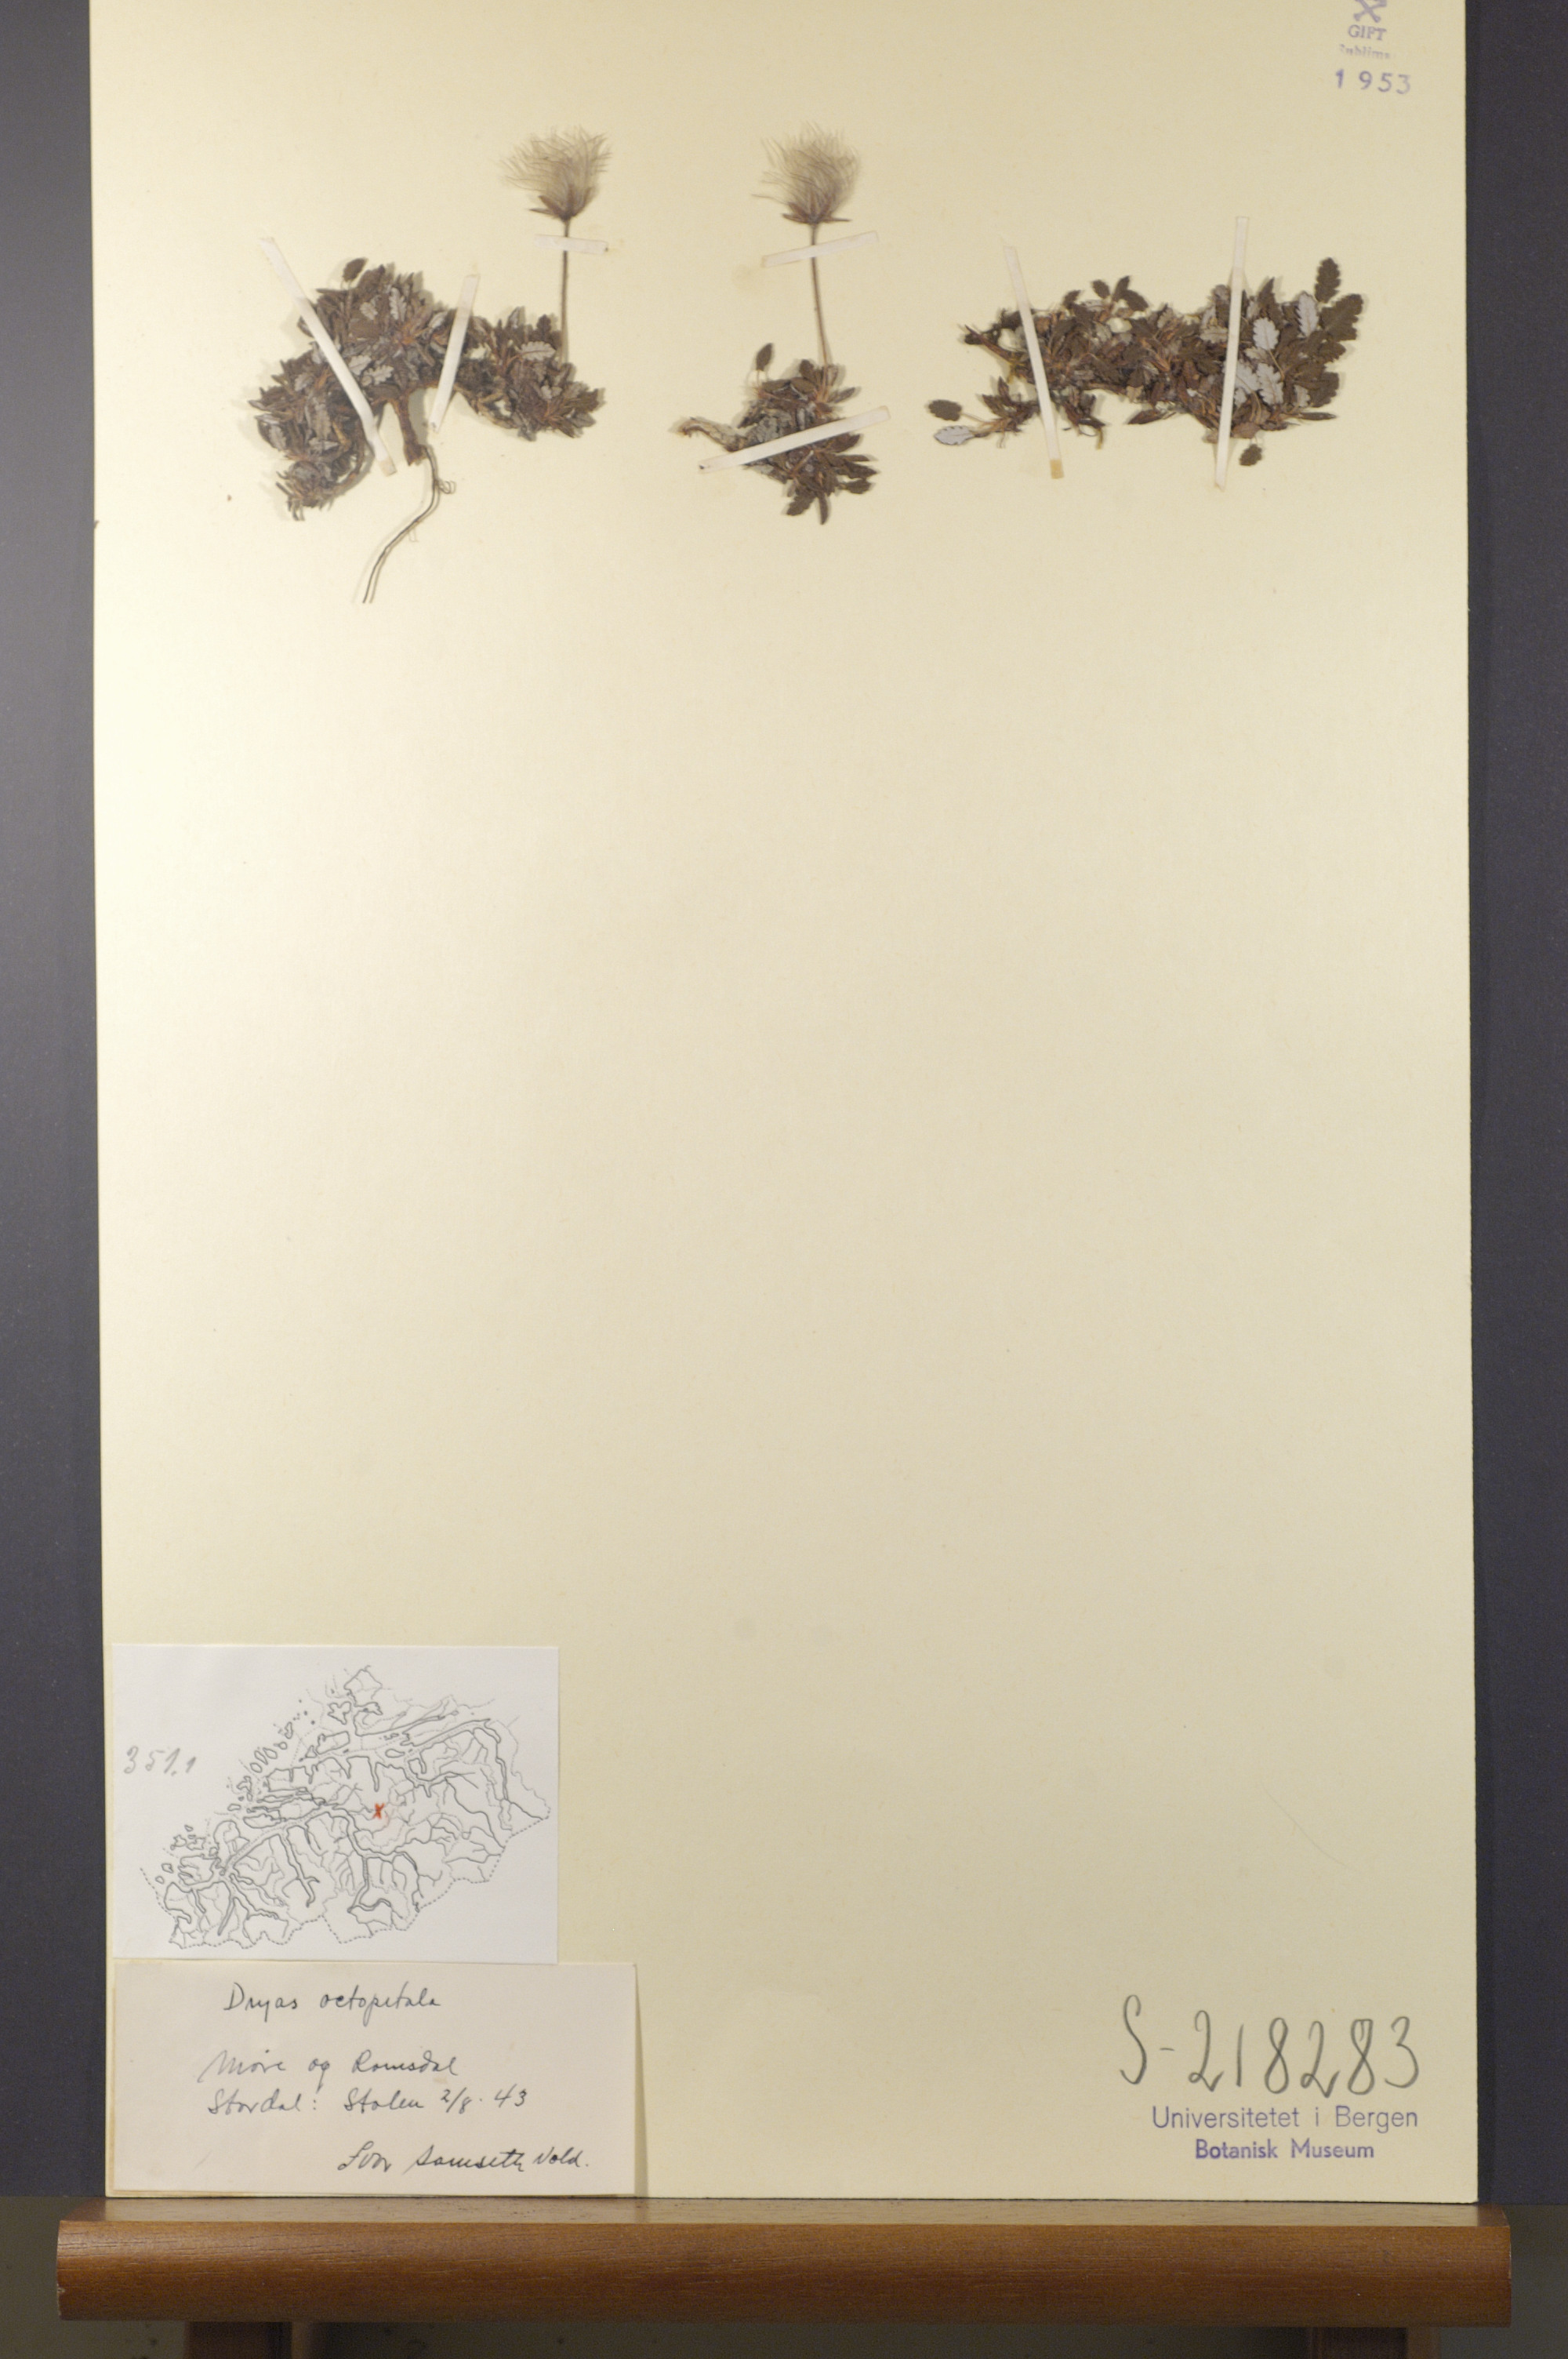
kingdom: Plantae
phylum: Tracheophyta
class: Magnoliopsida
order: Rosales
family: Rosaceae
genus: Dryas
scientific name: Dryas octopetala
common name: Eight-petal mountain-avens
